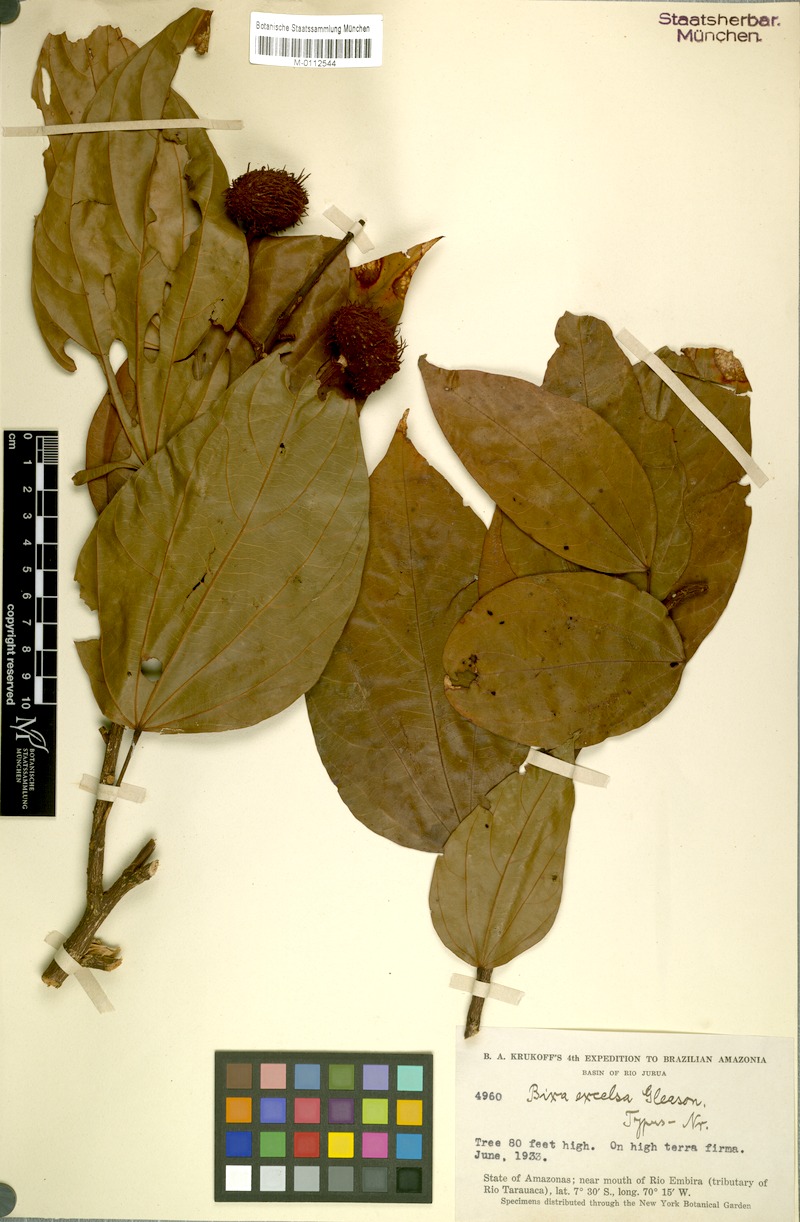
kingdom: Plantae
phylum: Tracheophyta
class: Magnoliopsida
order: Malvales
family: Bixaceae
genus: Bixa
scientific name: Bixa excelsa
